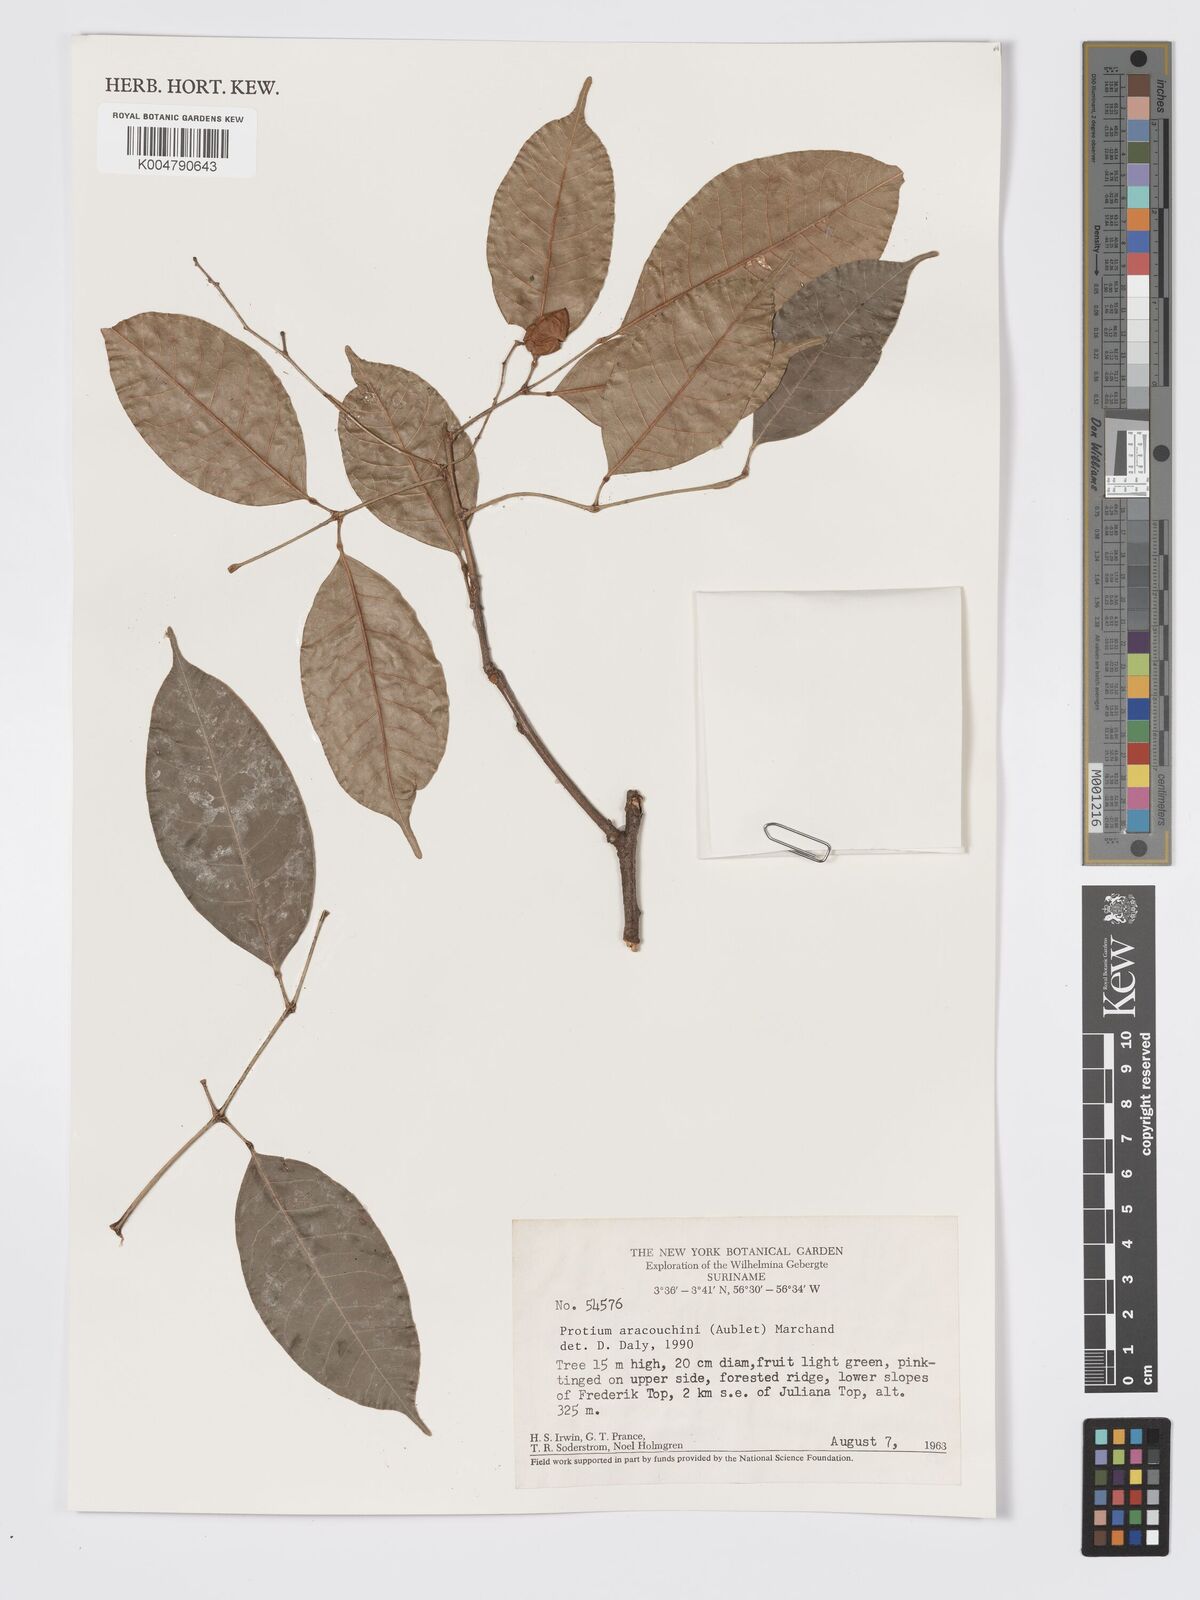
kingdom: Plantae
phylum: Tracheophyta
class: Magnoliopsida
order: Sapindales
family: Burseraceae
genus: Protium
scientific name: Protium aracouchini
